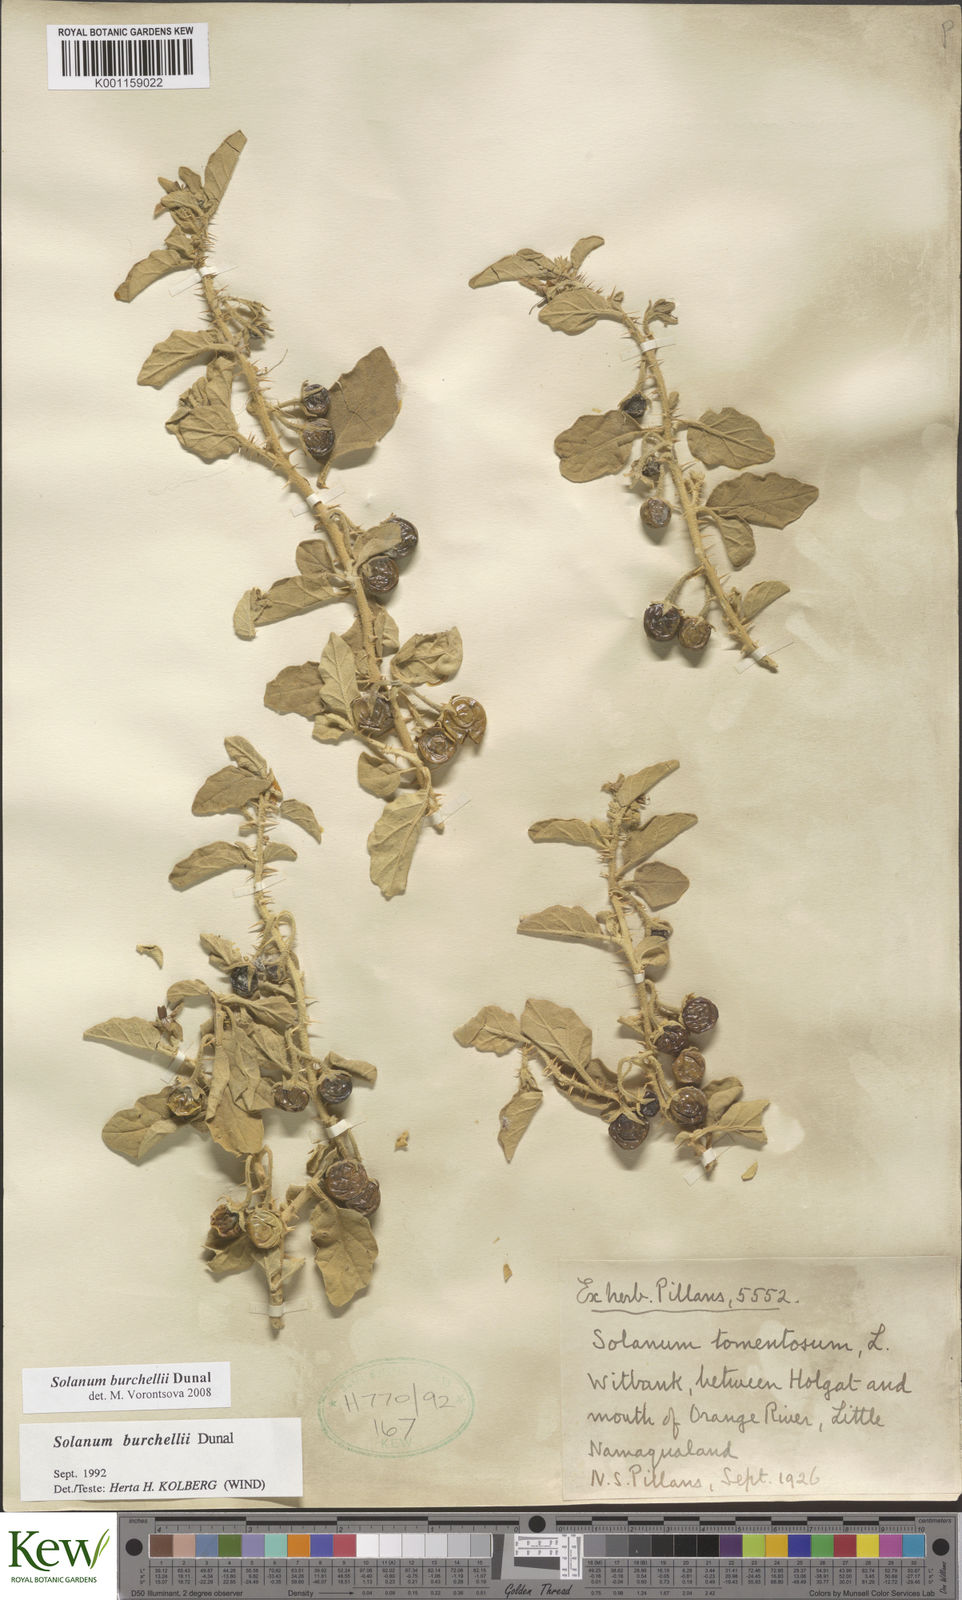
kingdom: Plantae
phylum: Tracheophyta
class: Magnoliopsida
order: Solanales
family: Solanaceae
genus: Solanum
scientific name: Solanum burchellii
